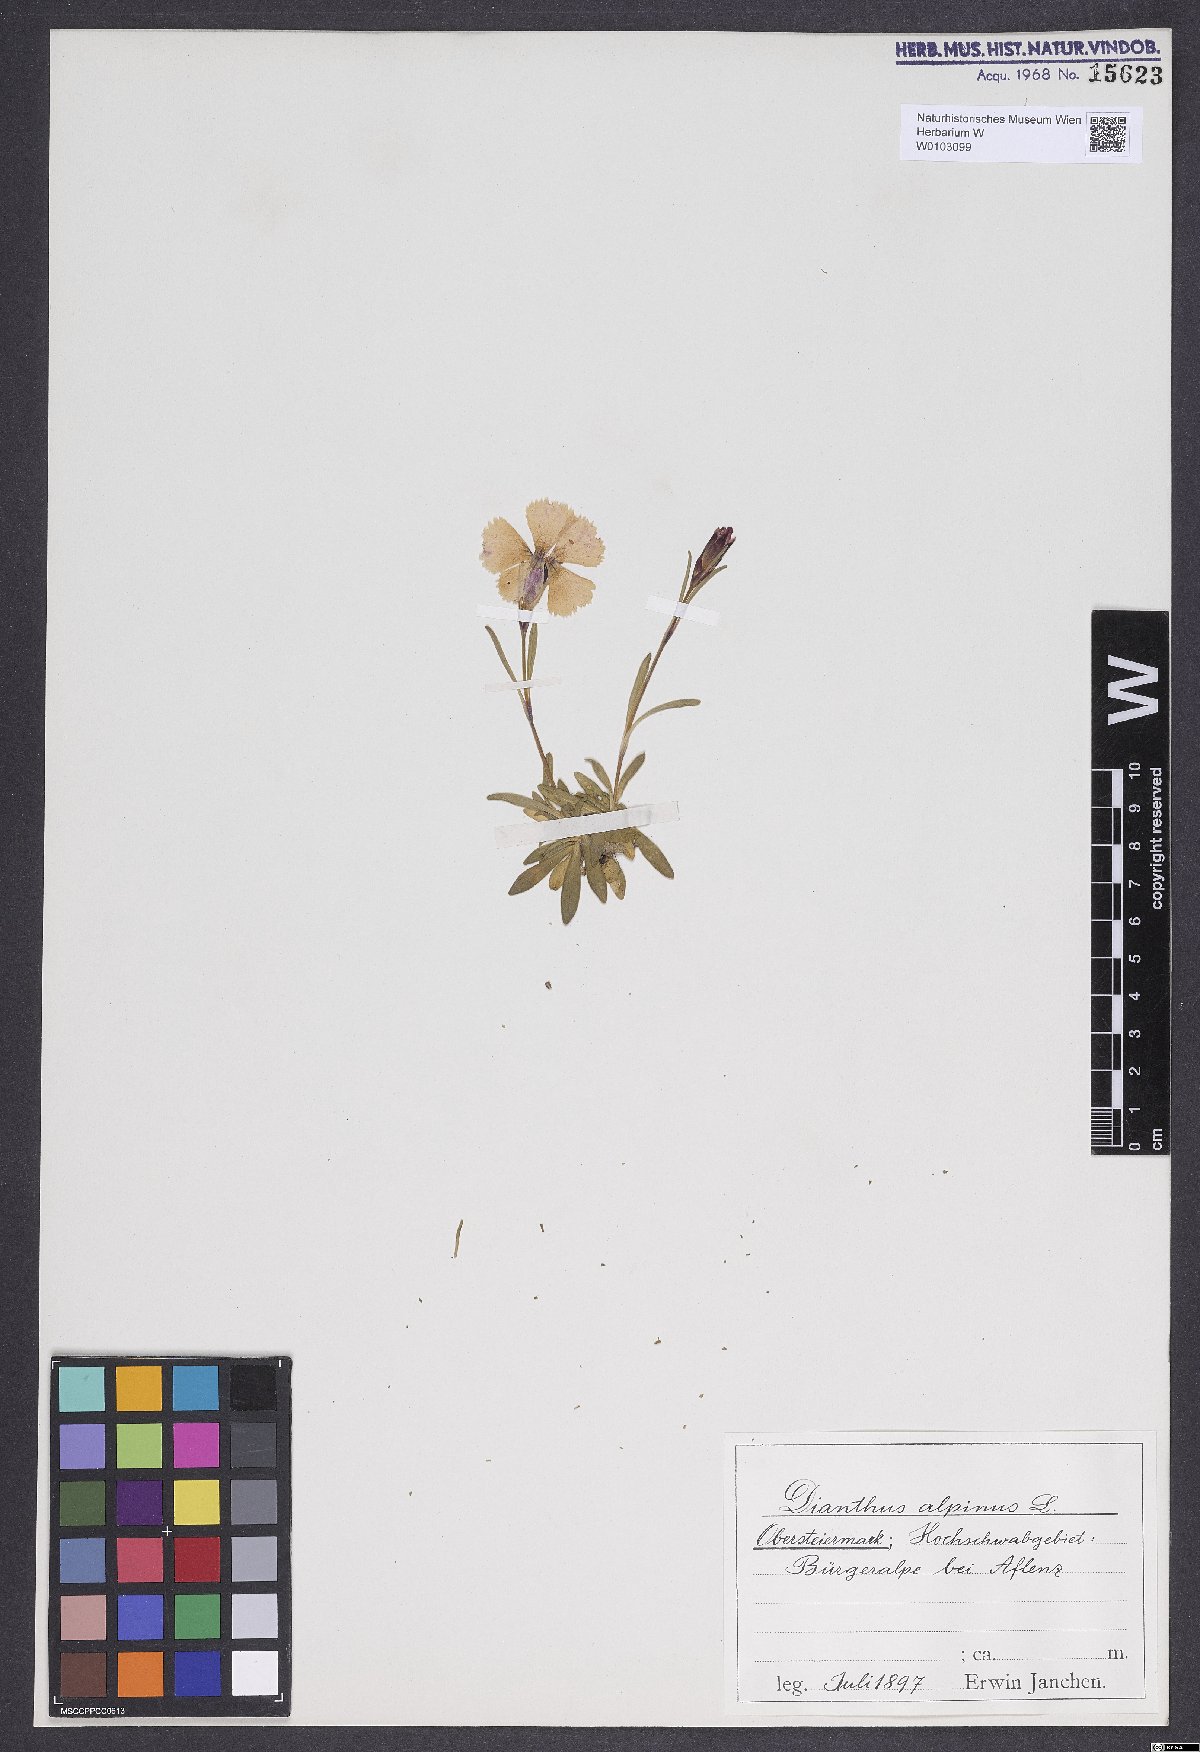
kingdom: Plantae
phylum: Tracheophyta
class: Magnoliopsida
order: Caryophyllales
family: Caryophyllaceae
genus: Dianthus
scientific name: Dianthus alpinus
